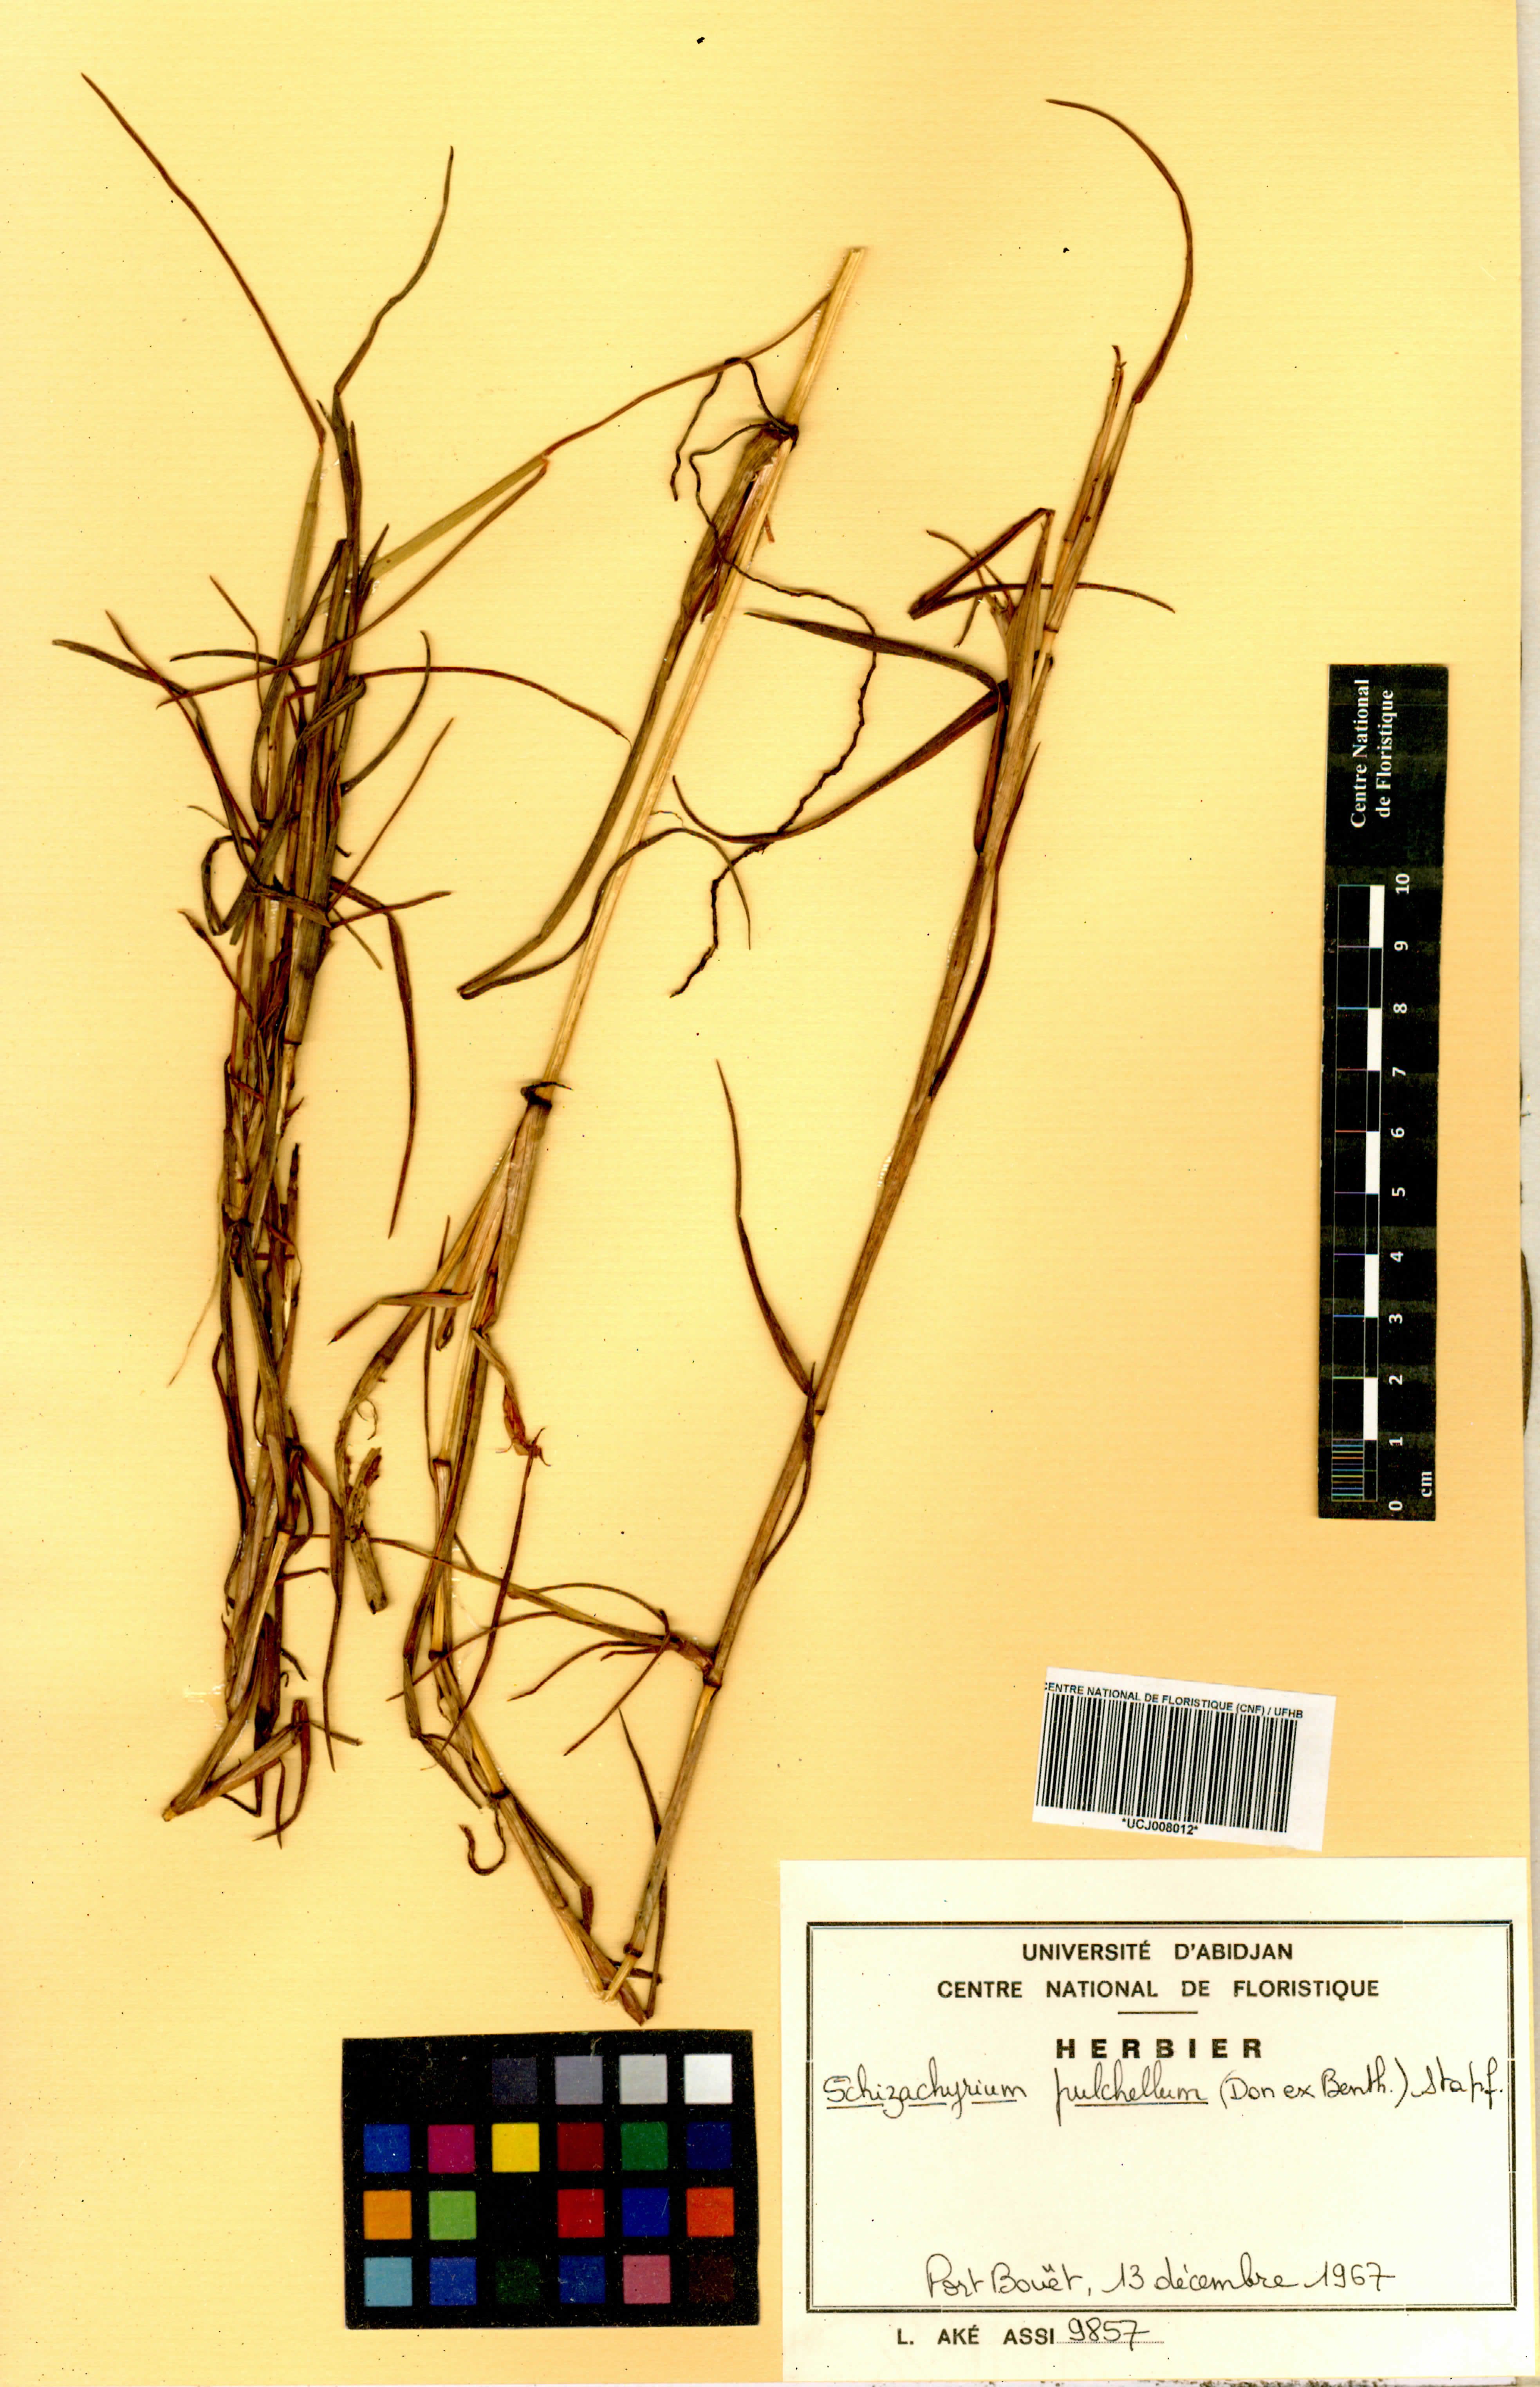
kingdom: Plantae
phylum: Tracheophyta
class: Liliopsida
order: Poales
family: Poaceae
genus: Schizachyrium
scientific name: Schizachyrium pulchellum
